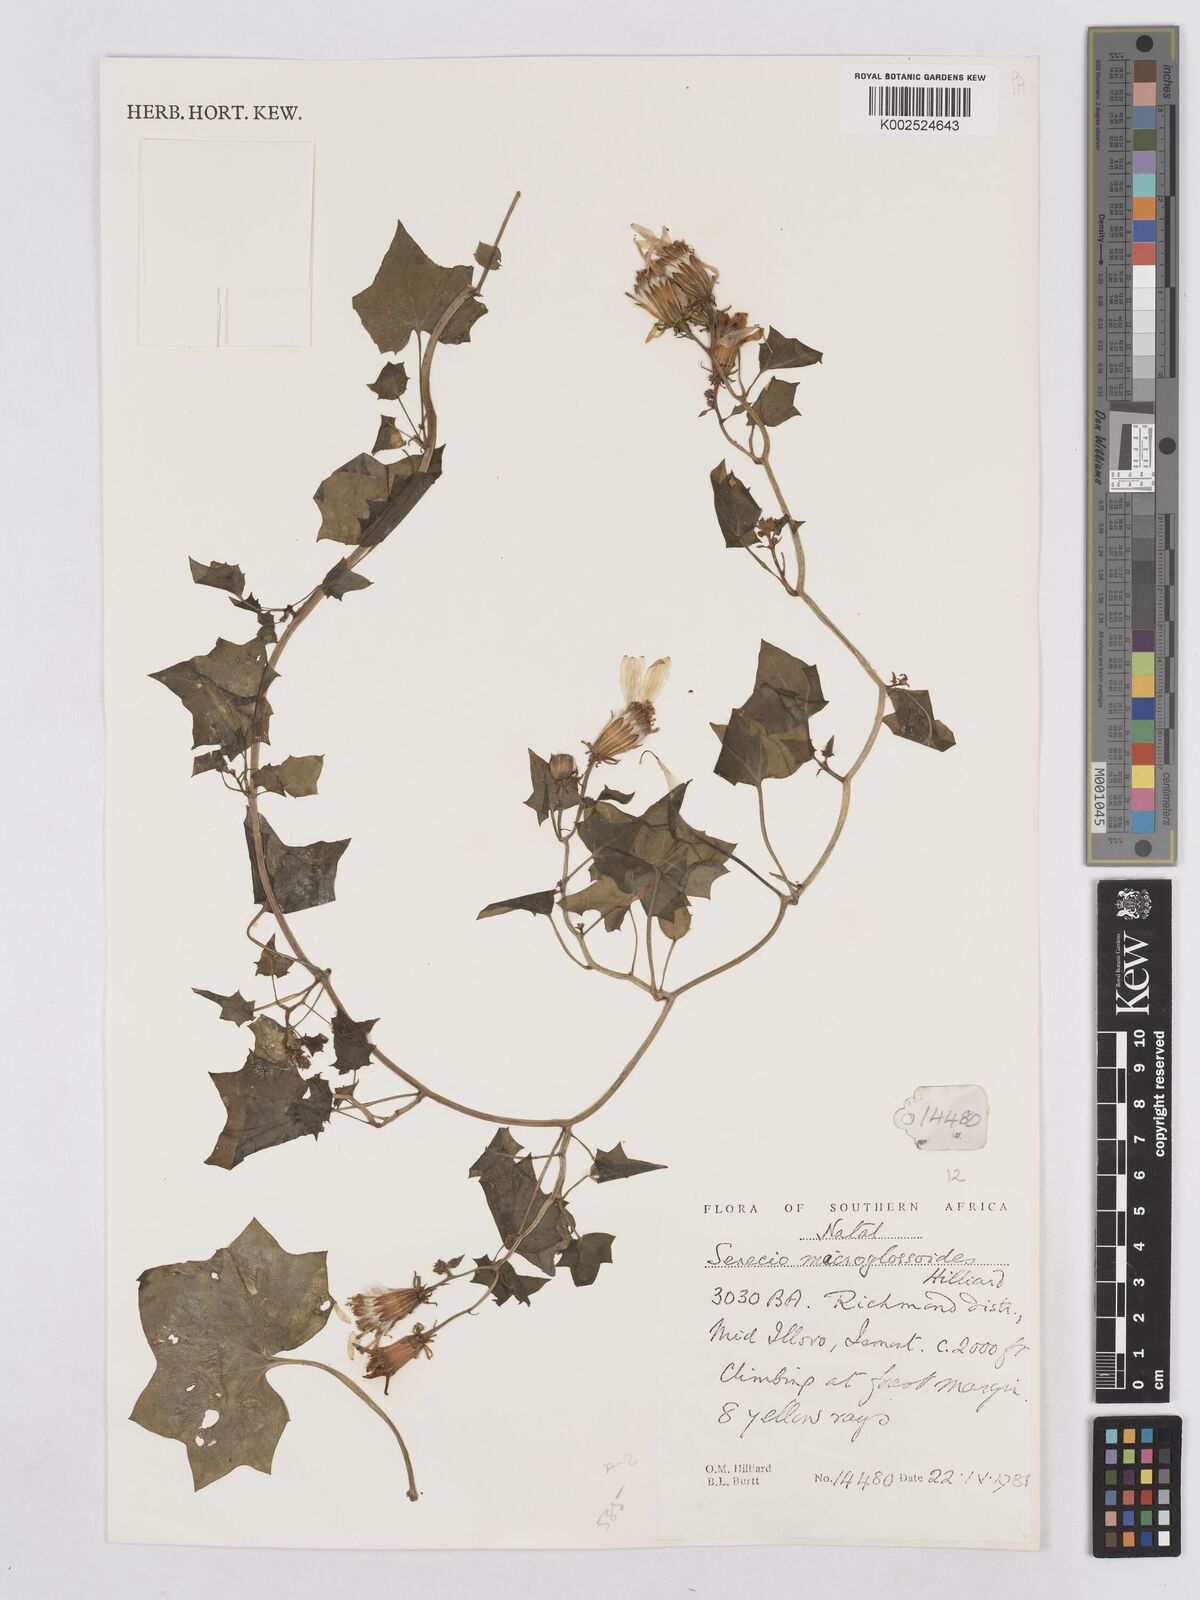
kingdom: Plantae
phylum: Tracheophyta
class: Magnoliopsida
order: Asterales
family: Asteraceae
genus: Senecio
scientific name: Senecio macroglossoides
